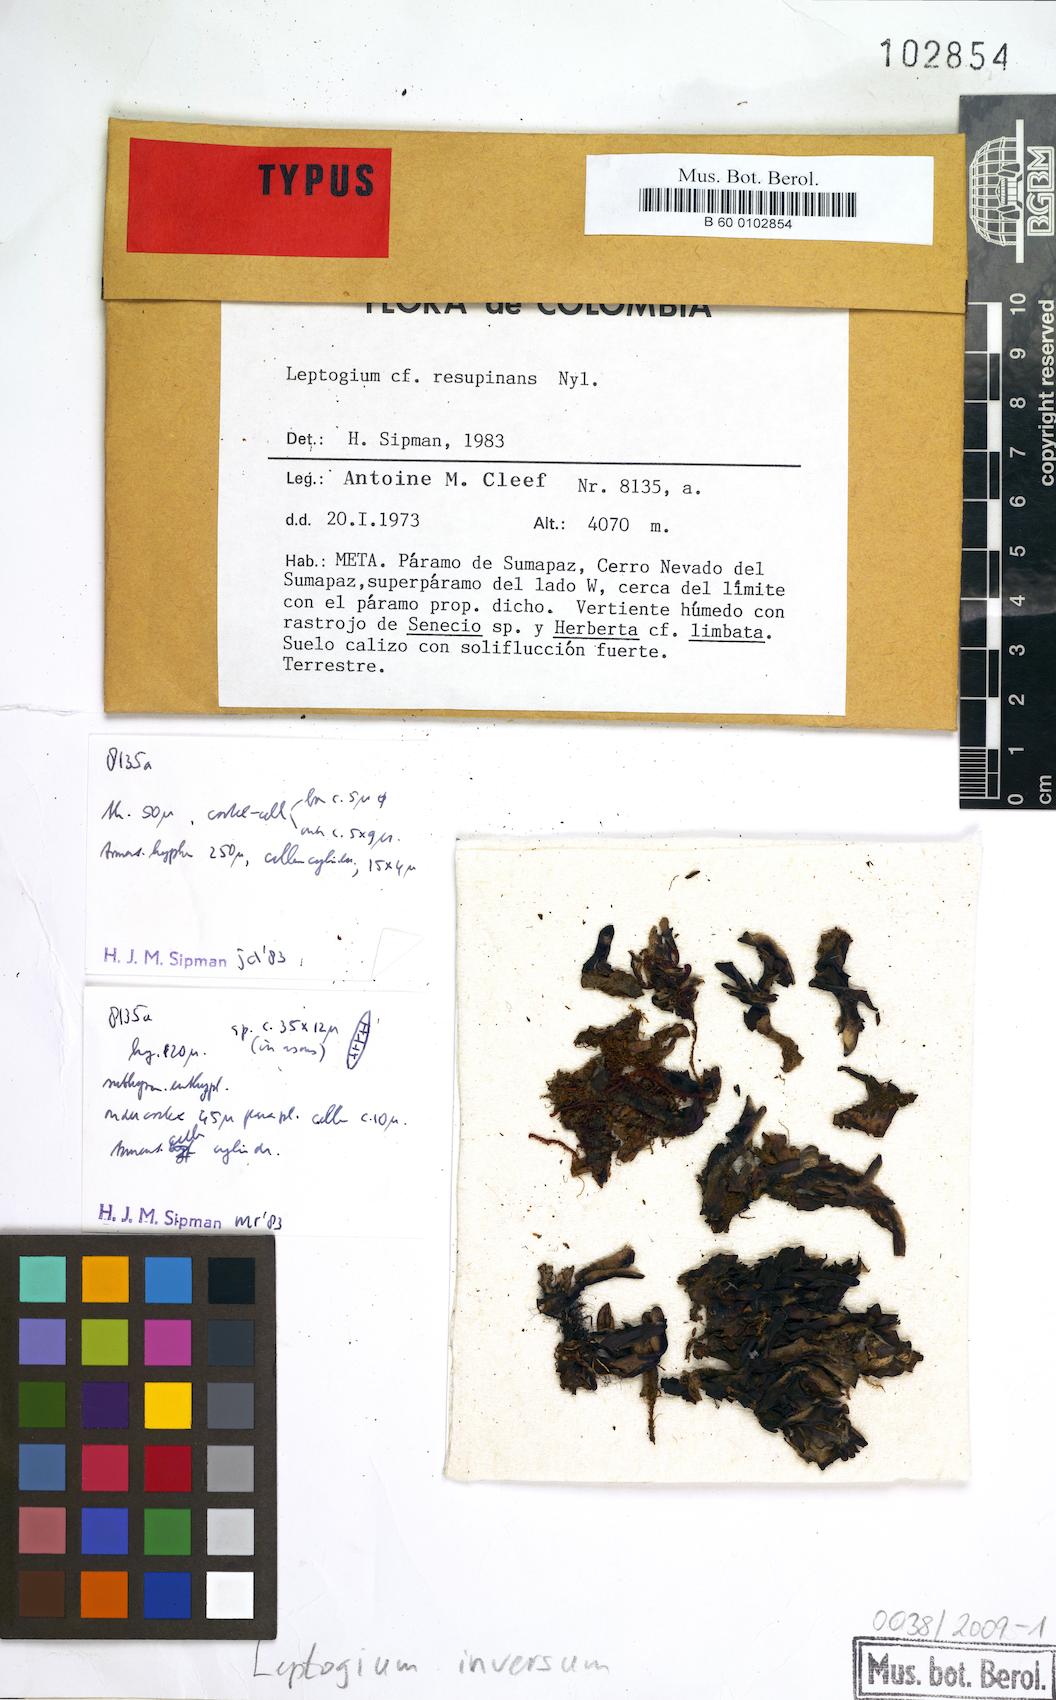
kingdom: Fungi
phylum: Ascomycota
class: Lecanoromycetes
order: Peltigerales
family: Collemataceae
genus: Leptogium
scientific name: Leptogium inversum
